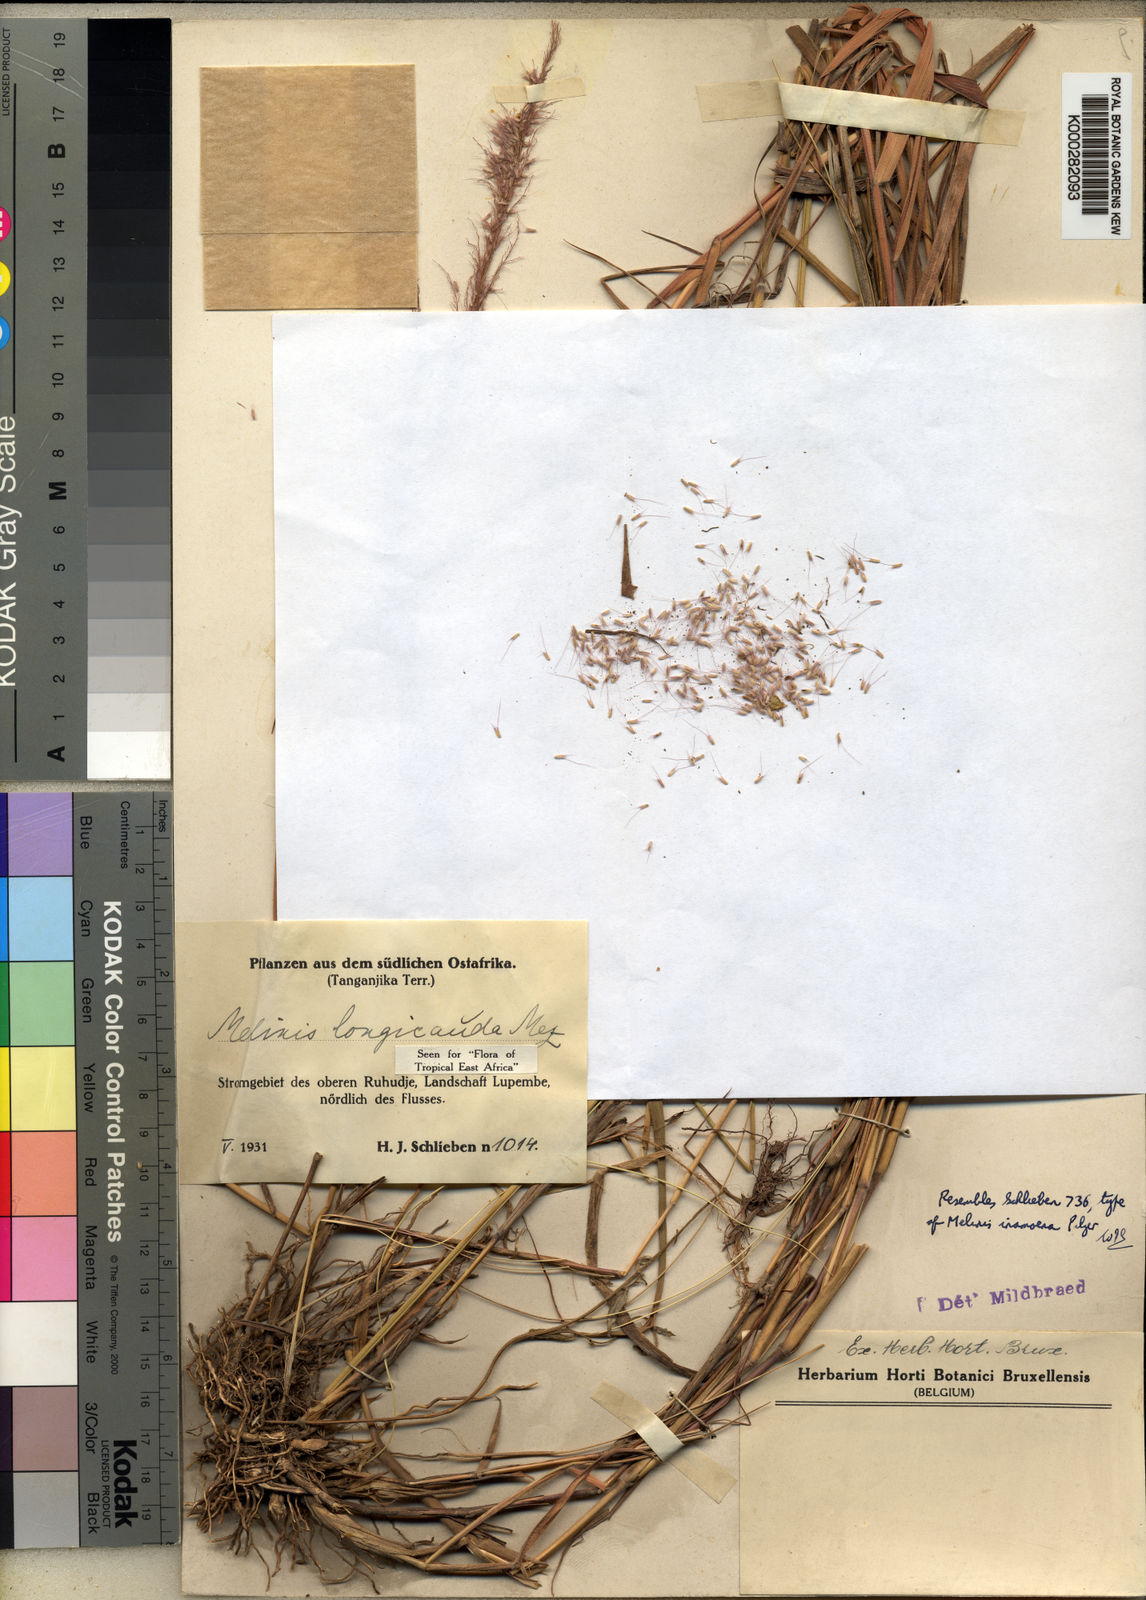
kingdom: Plantae
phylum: Tracheophyta
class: Liliopsida
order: Poales
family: Poaceae
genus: Melinis
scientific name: Melinis ambigua
